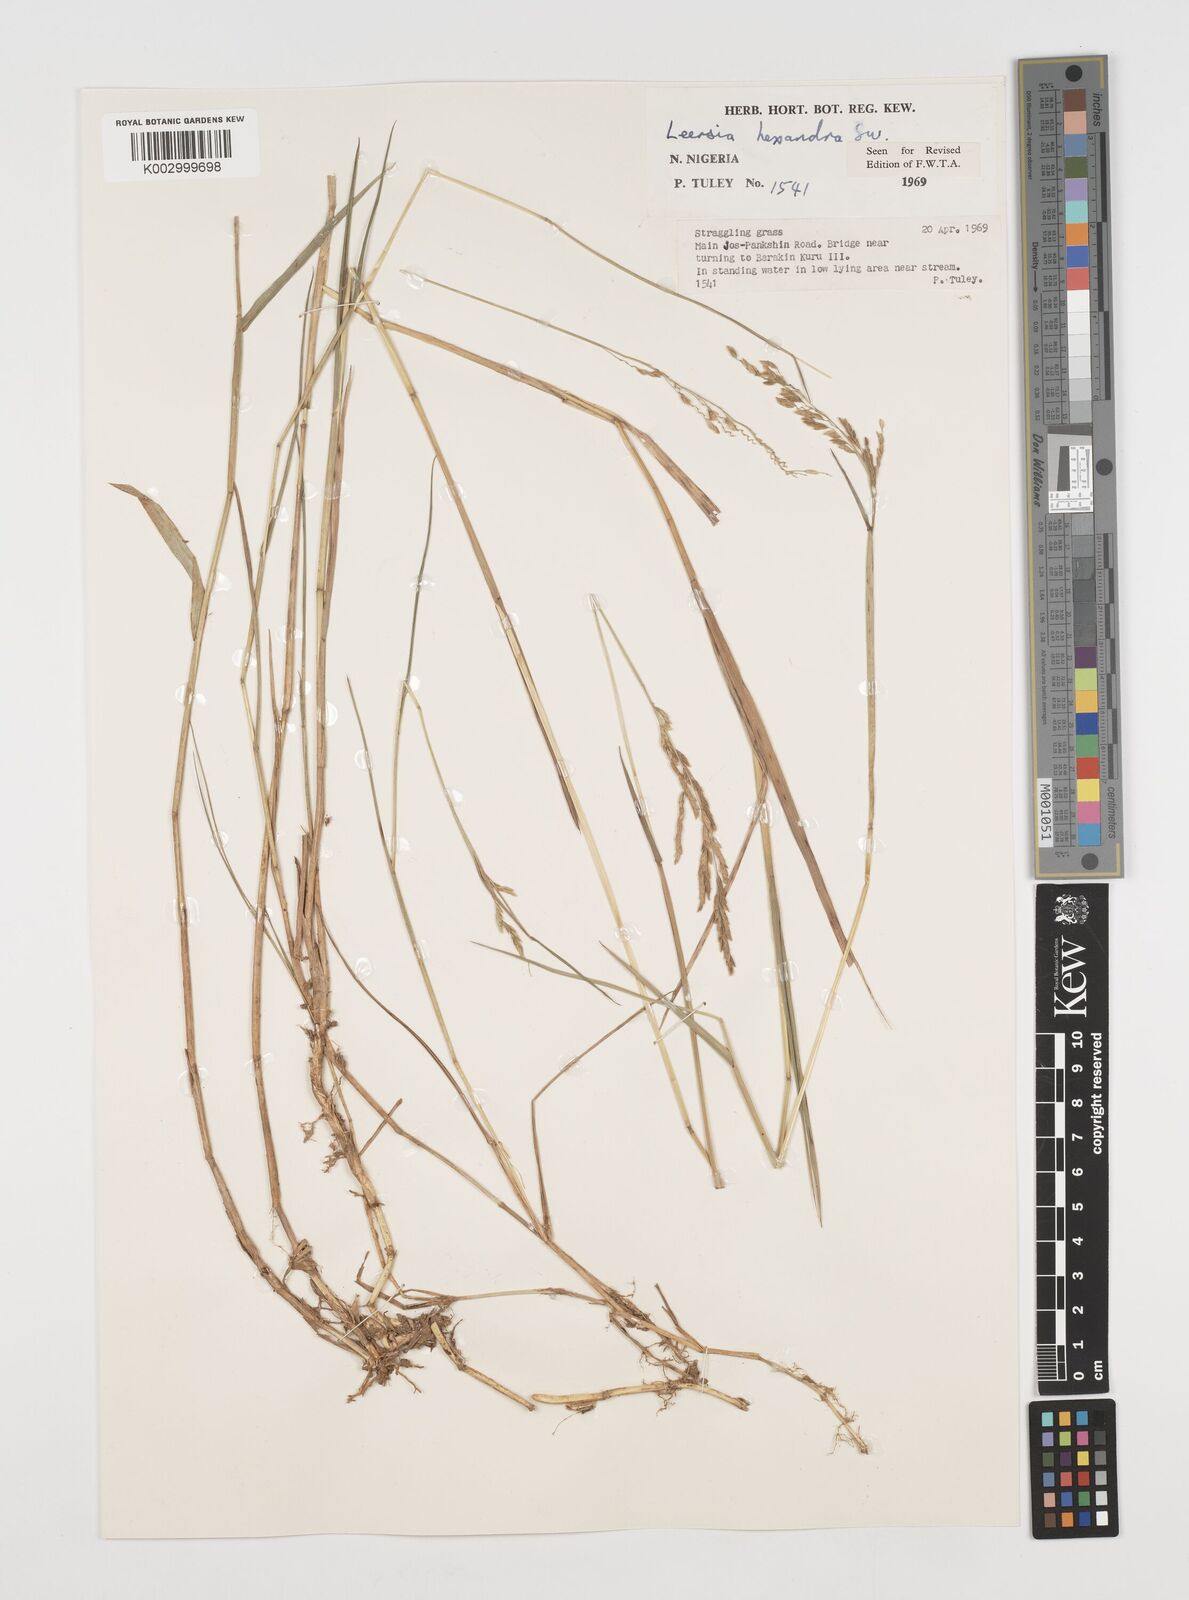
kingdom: Plantae
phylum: Tracheophyta
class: Liliopsida
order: Poales
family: Poaceae
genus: Leersia
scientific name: Leersia hexandra
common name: Southern cut grass
